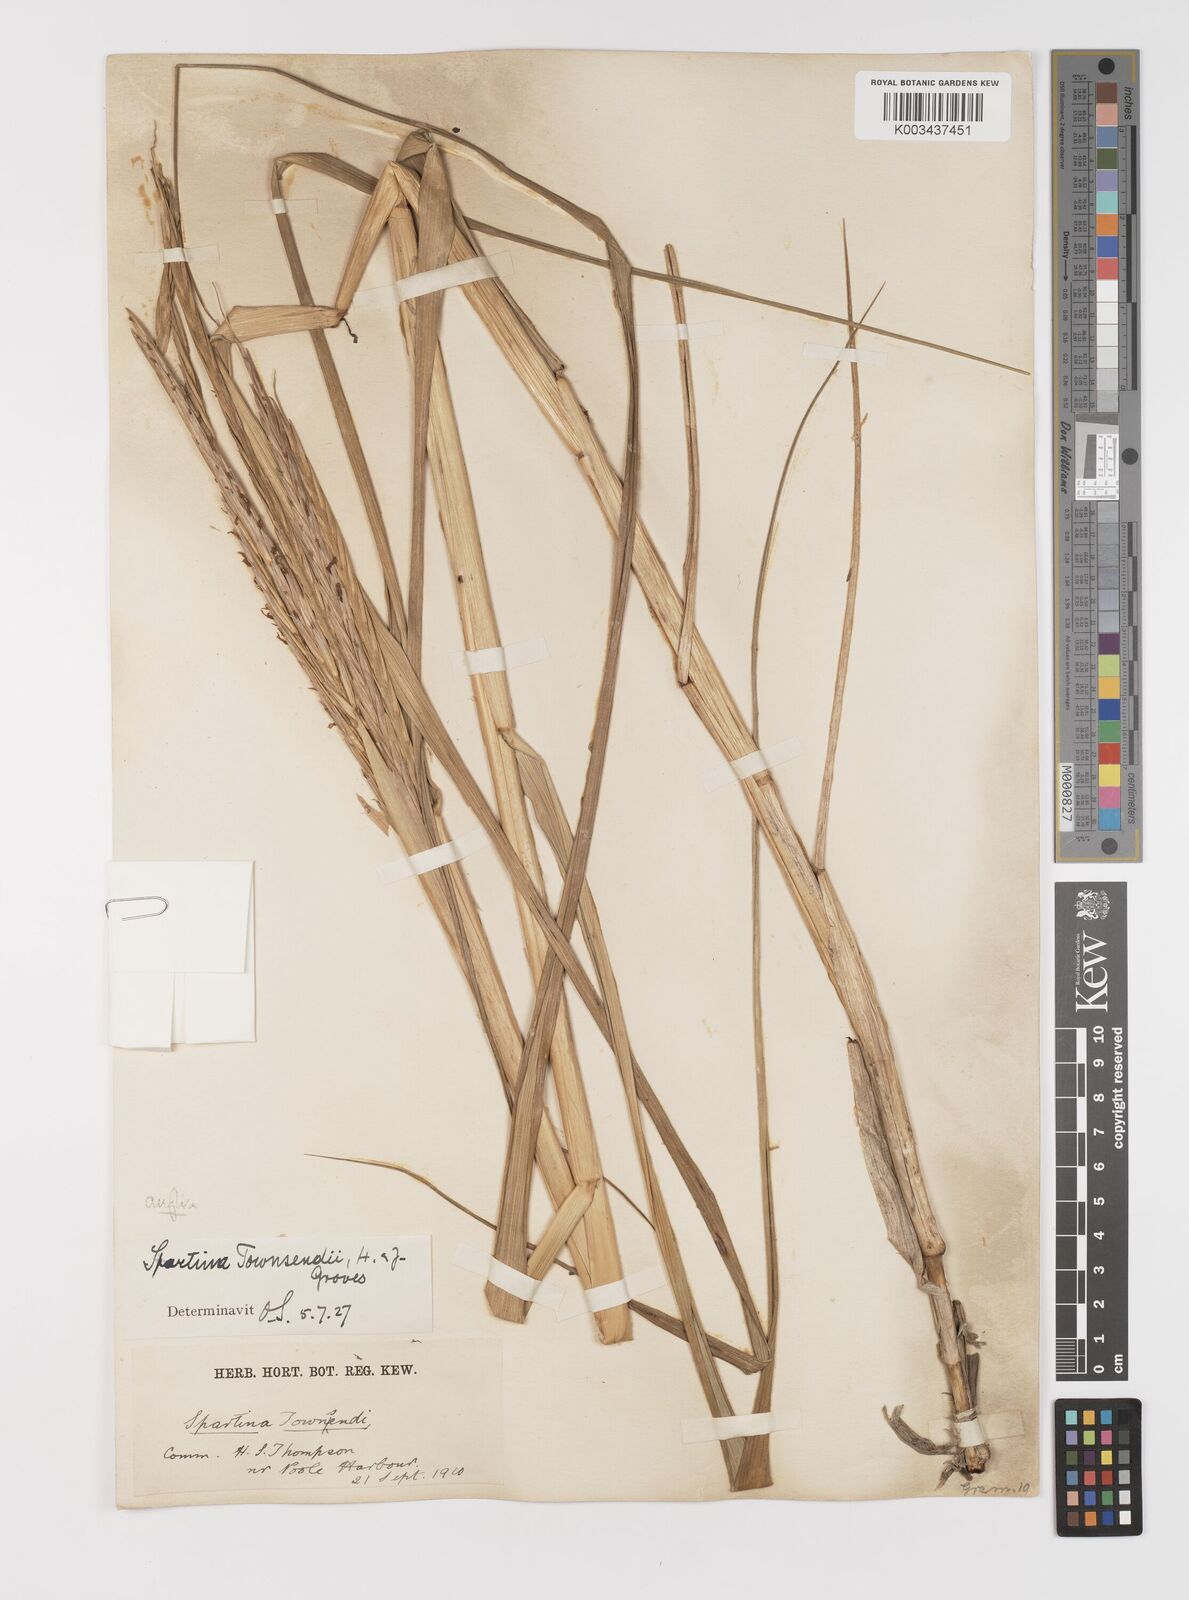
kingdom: Plantae
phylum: Tracheophyta
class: Liliopsida
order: Poales
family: Poaceae
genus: Sporobolus
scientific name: Sporobolus anglicus
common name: English cordgrass
